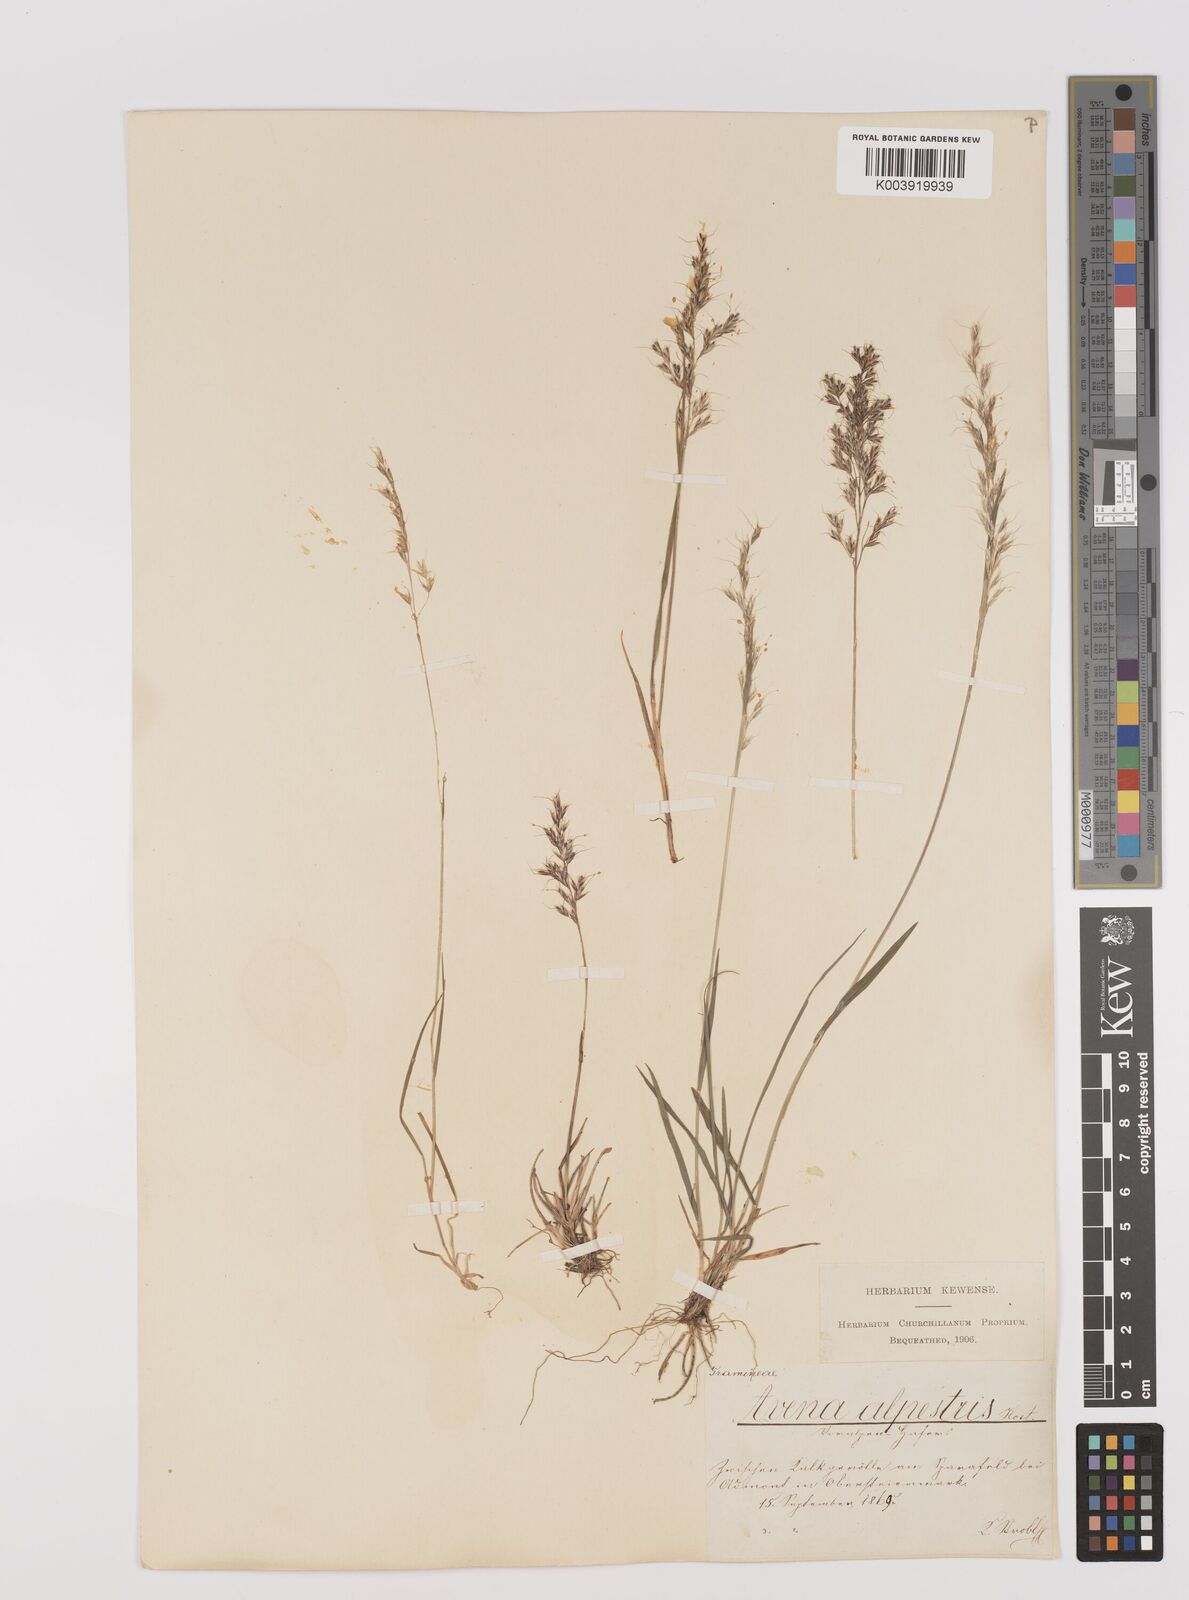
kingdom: Plantae
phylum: Tracheophyta
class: Liliopsida
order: Poales
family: Poaceae
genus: Trisetum
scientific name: Trisetum alpestre
